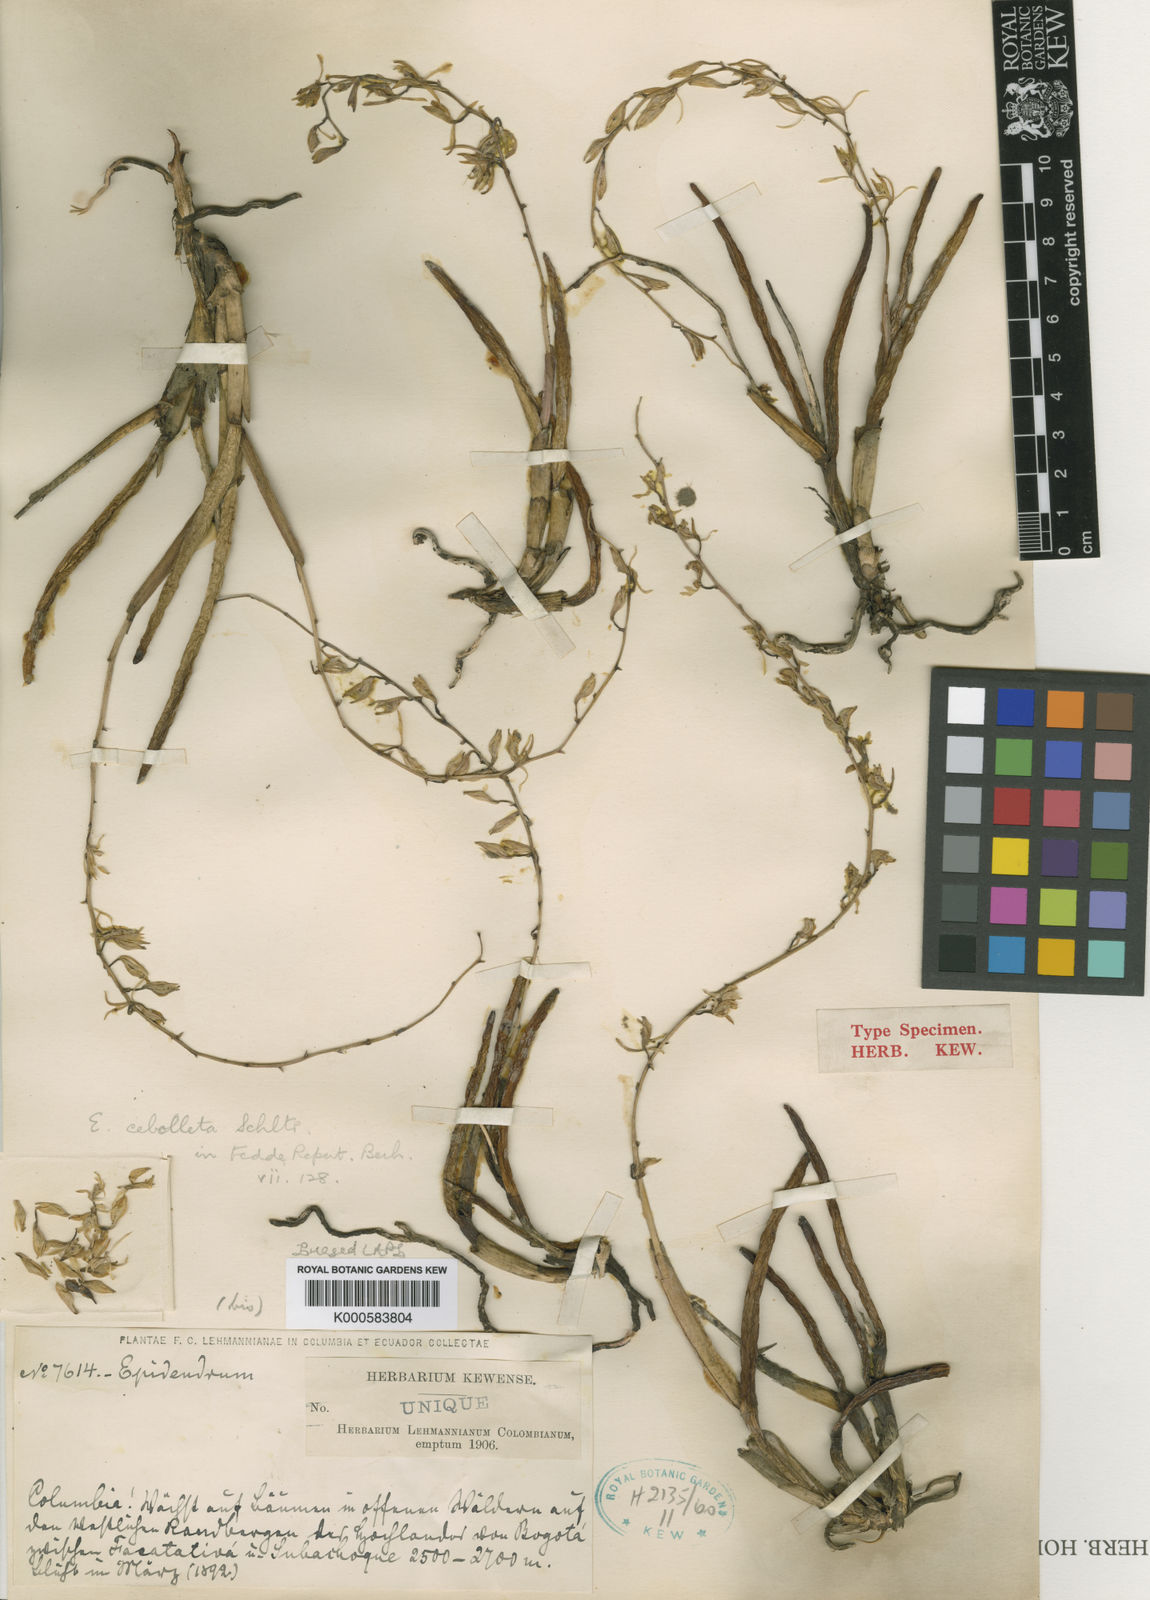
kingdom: Plantae
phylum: Tracheophyta
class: Liliopsida
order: Asparagales
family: Orchidaceae
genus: Epidendrum
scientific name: Epidendrum uribei
